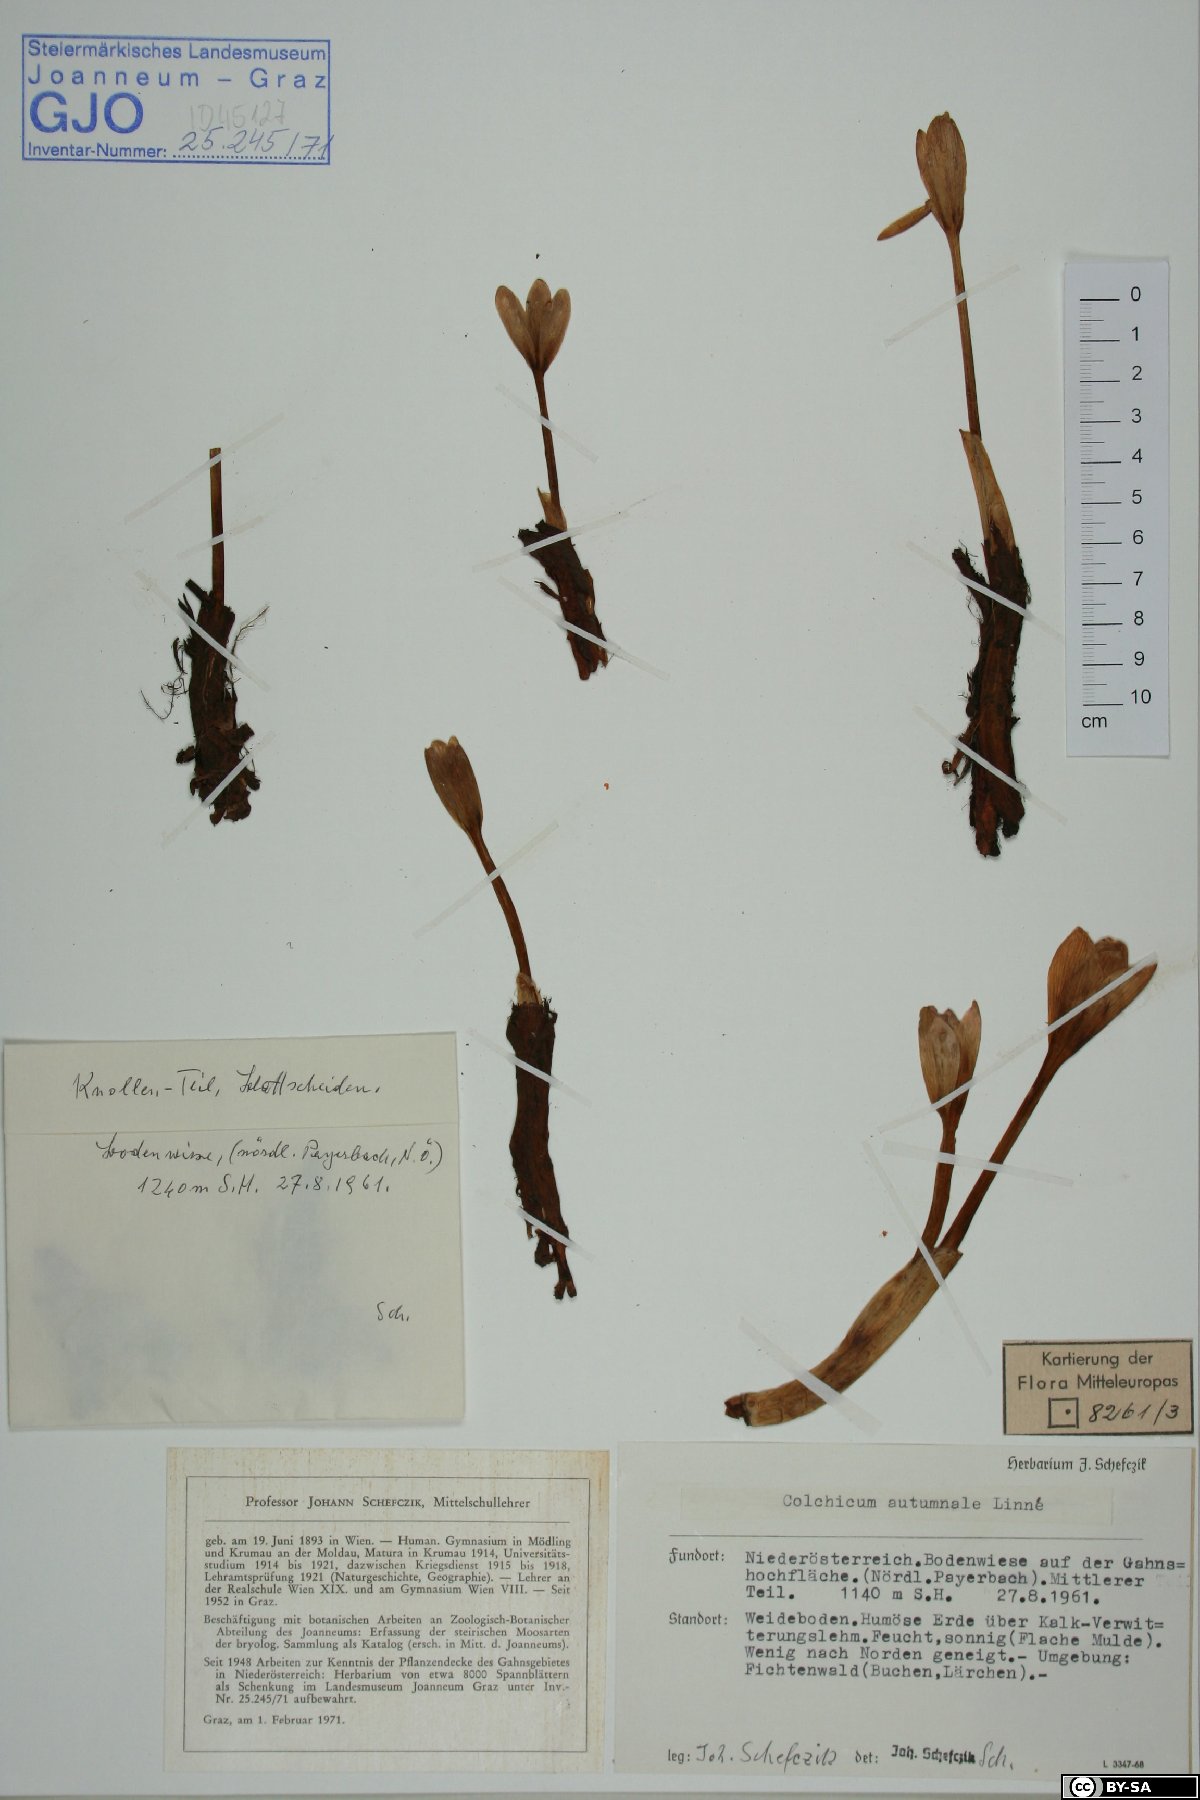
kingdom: Plantae
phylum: Tracheophyta
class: Liliopsida
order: Liliales
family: Colchicaceae
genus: Colchicum
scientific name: Colchicum autumnale
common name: Autumn crocus
